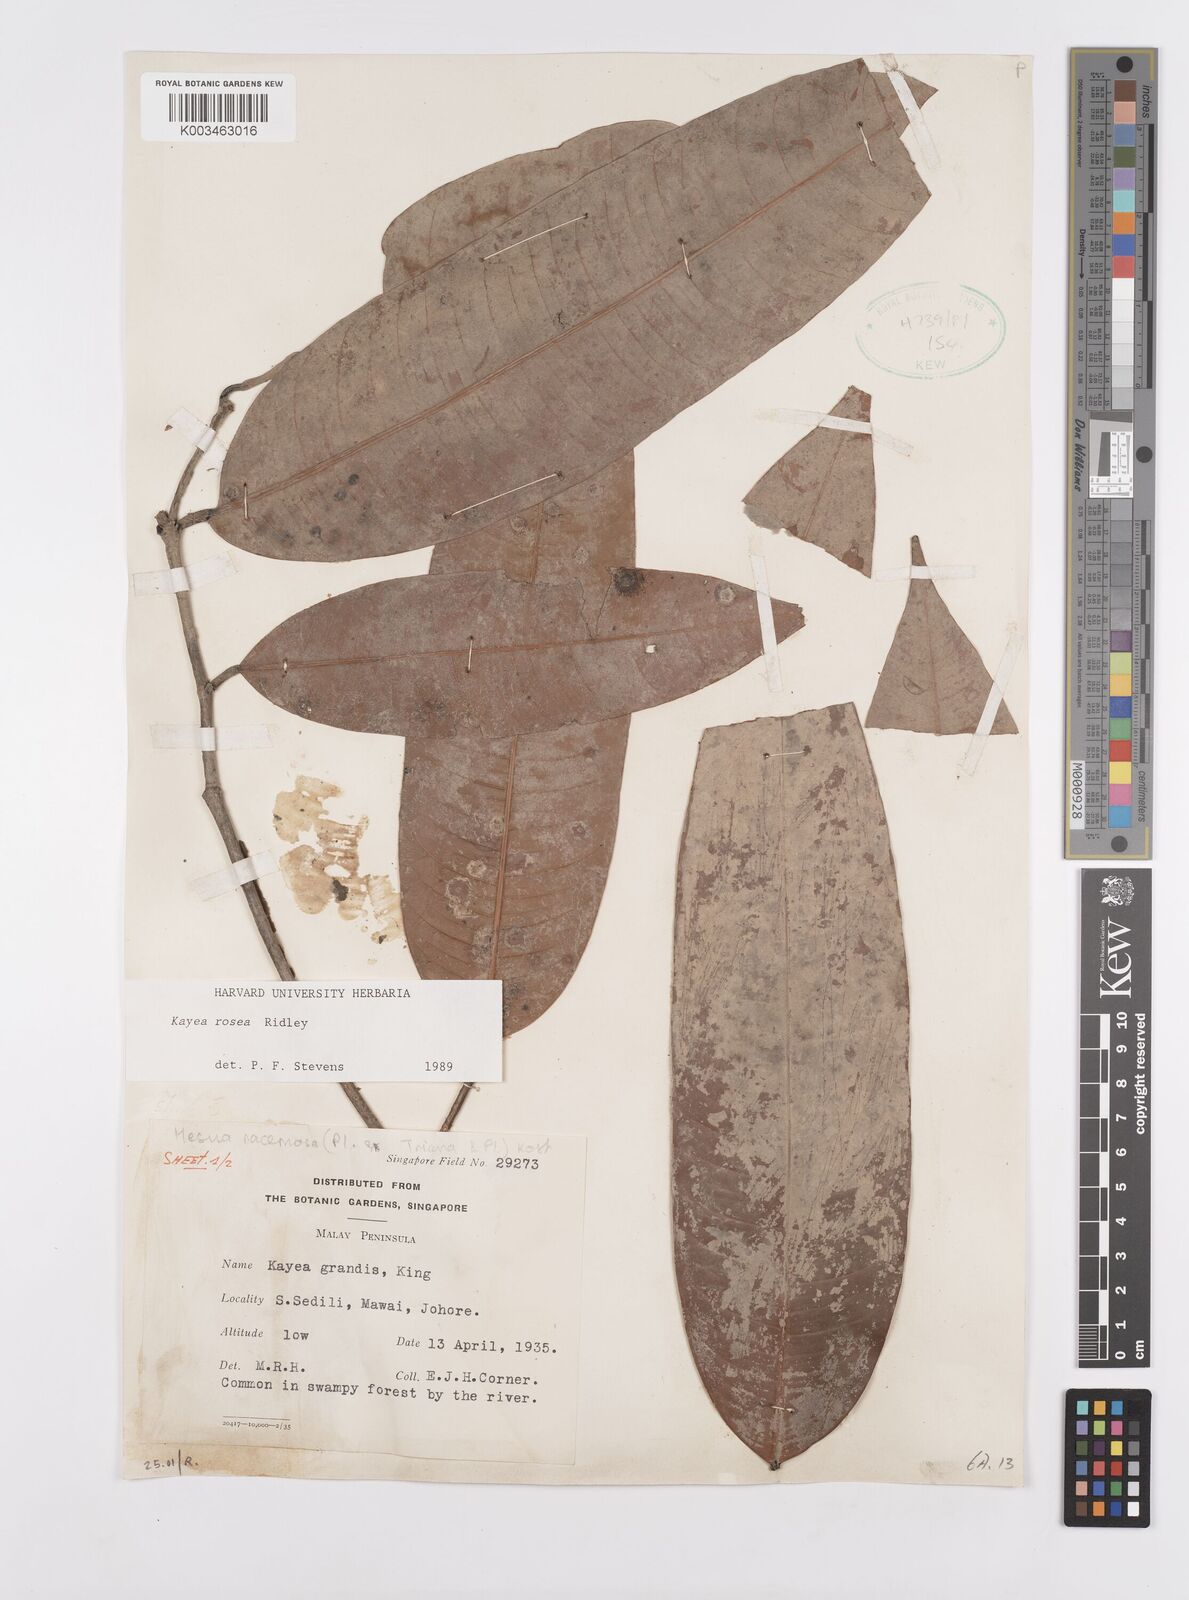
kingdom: Plantae
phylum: Tracheophyta
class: Magnoliopsida
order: Malpighiales
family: Calophyllaceae
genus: Kayea
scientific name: Kayea rosea
